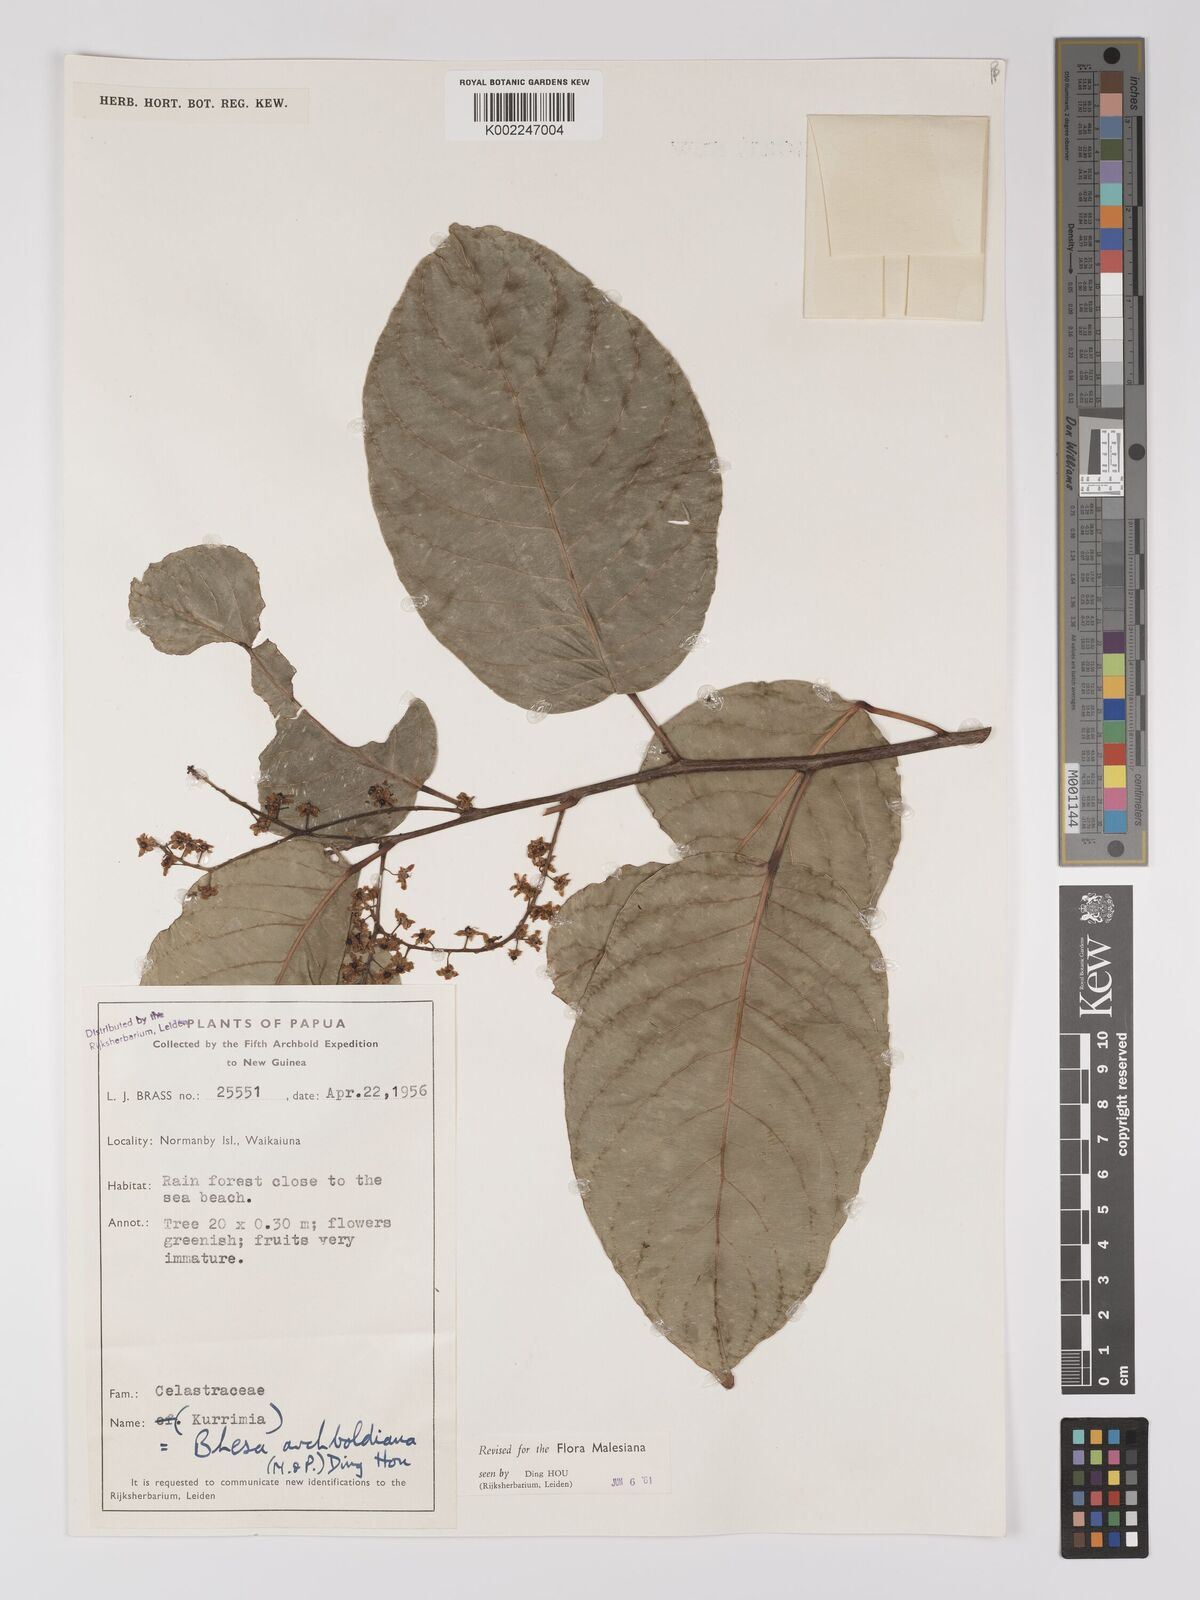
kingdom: Plantae
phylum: Tracheophyta
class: Magnoliopsida
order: Malpighiales
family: Centroplacaceae
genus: Bhesa
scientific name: Bhesa archboldiana
